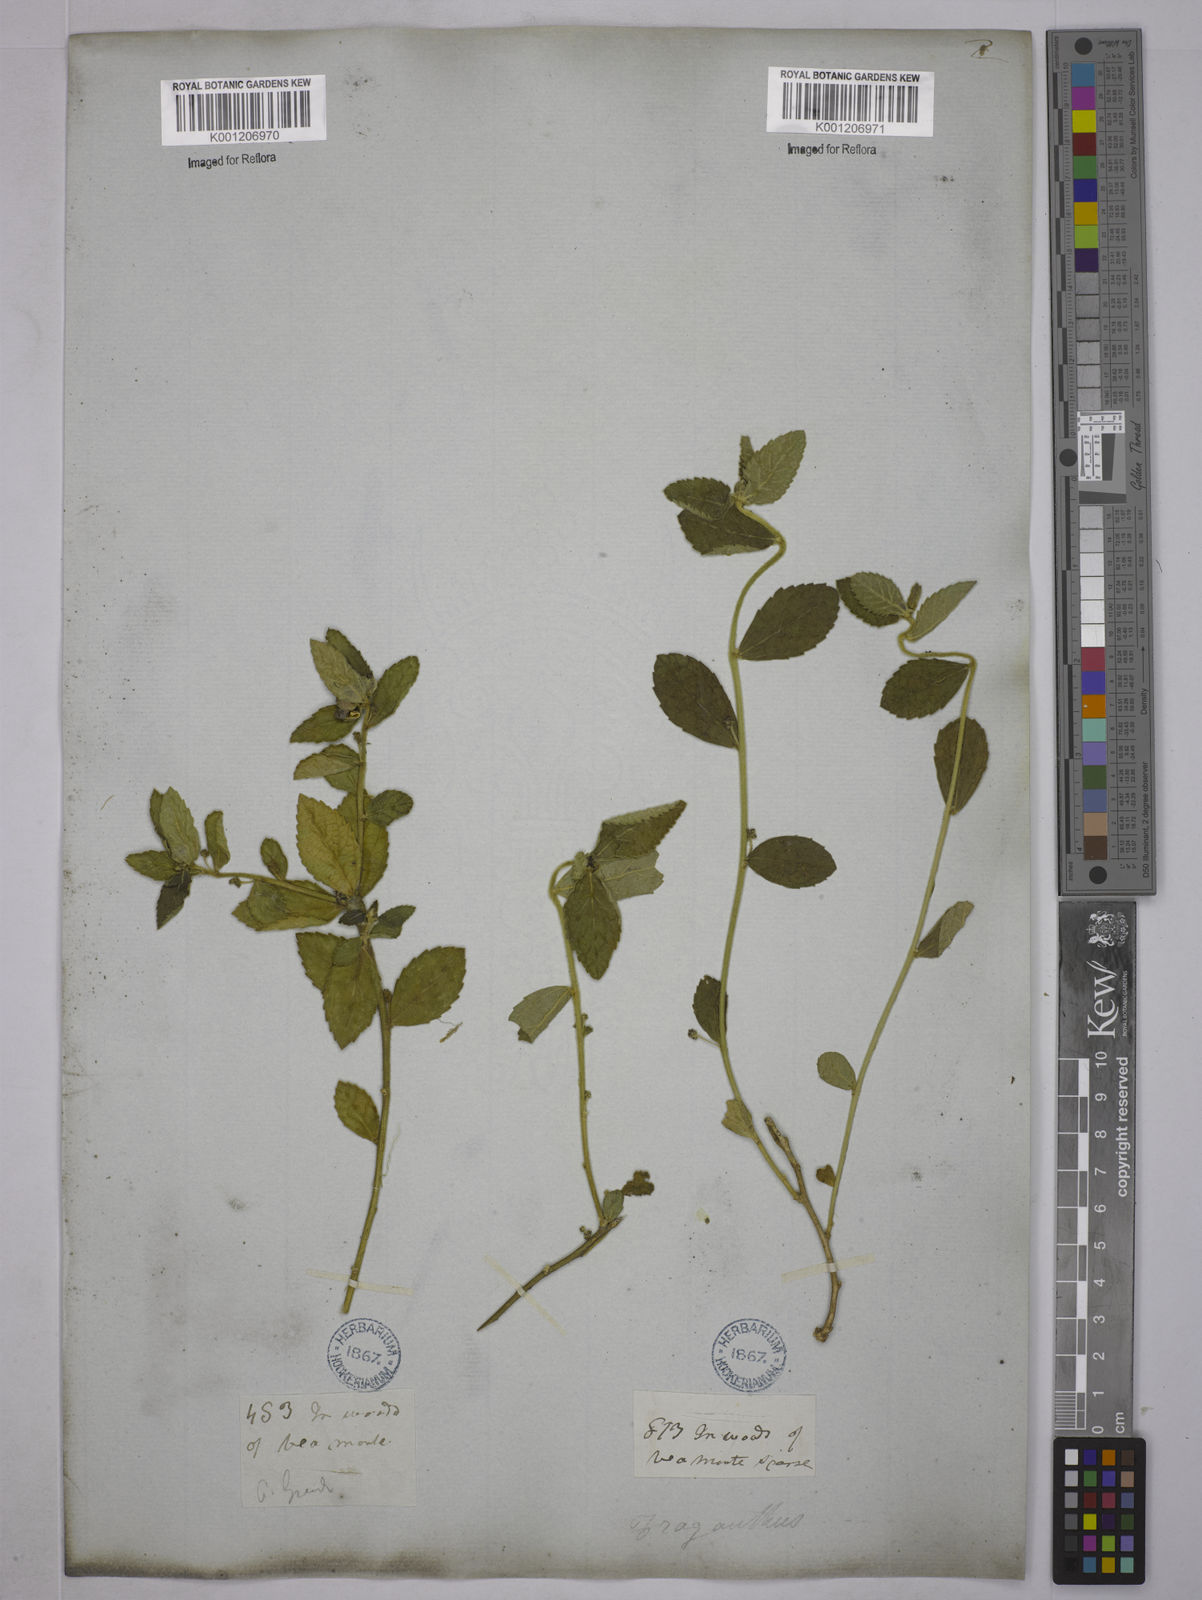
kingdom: Plantae
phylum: Tracheophyta
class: Magnoliopsida
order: Malpighiales
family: Euphorbiaceae
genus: Bernardia
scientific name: Bernardia multicaulis
